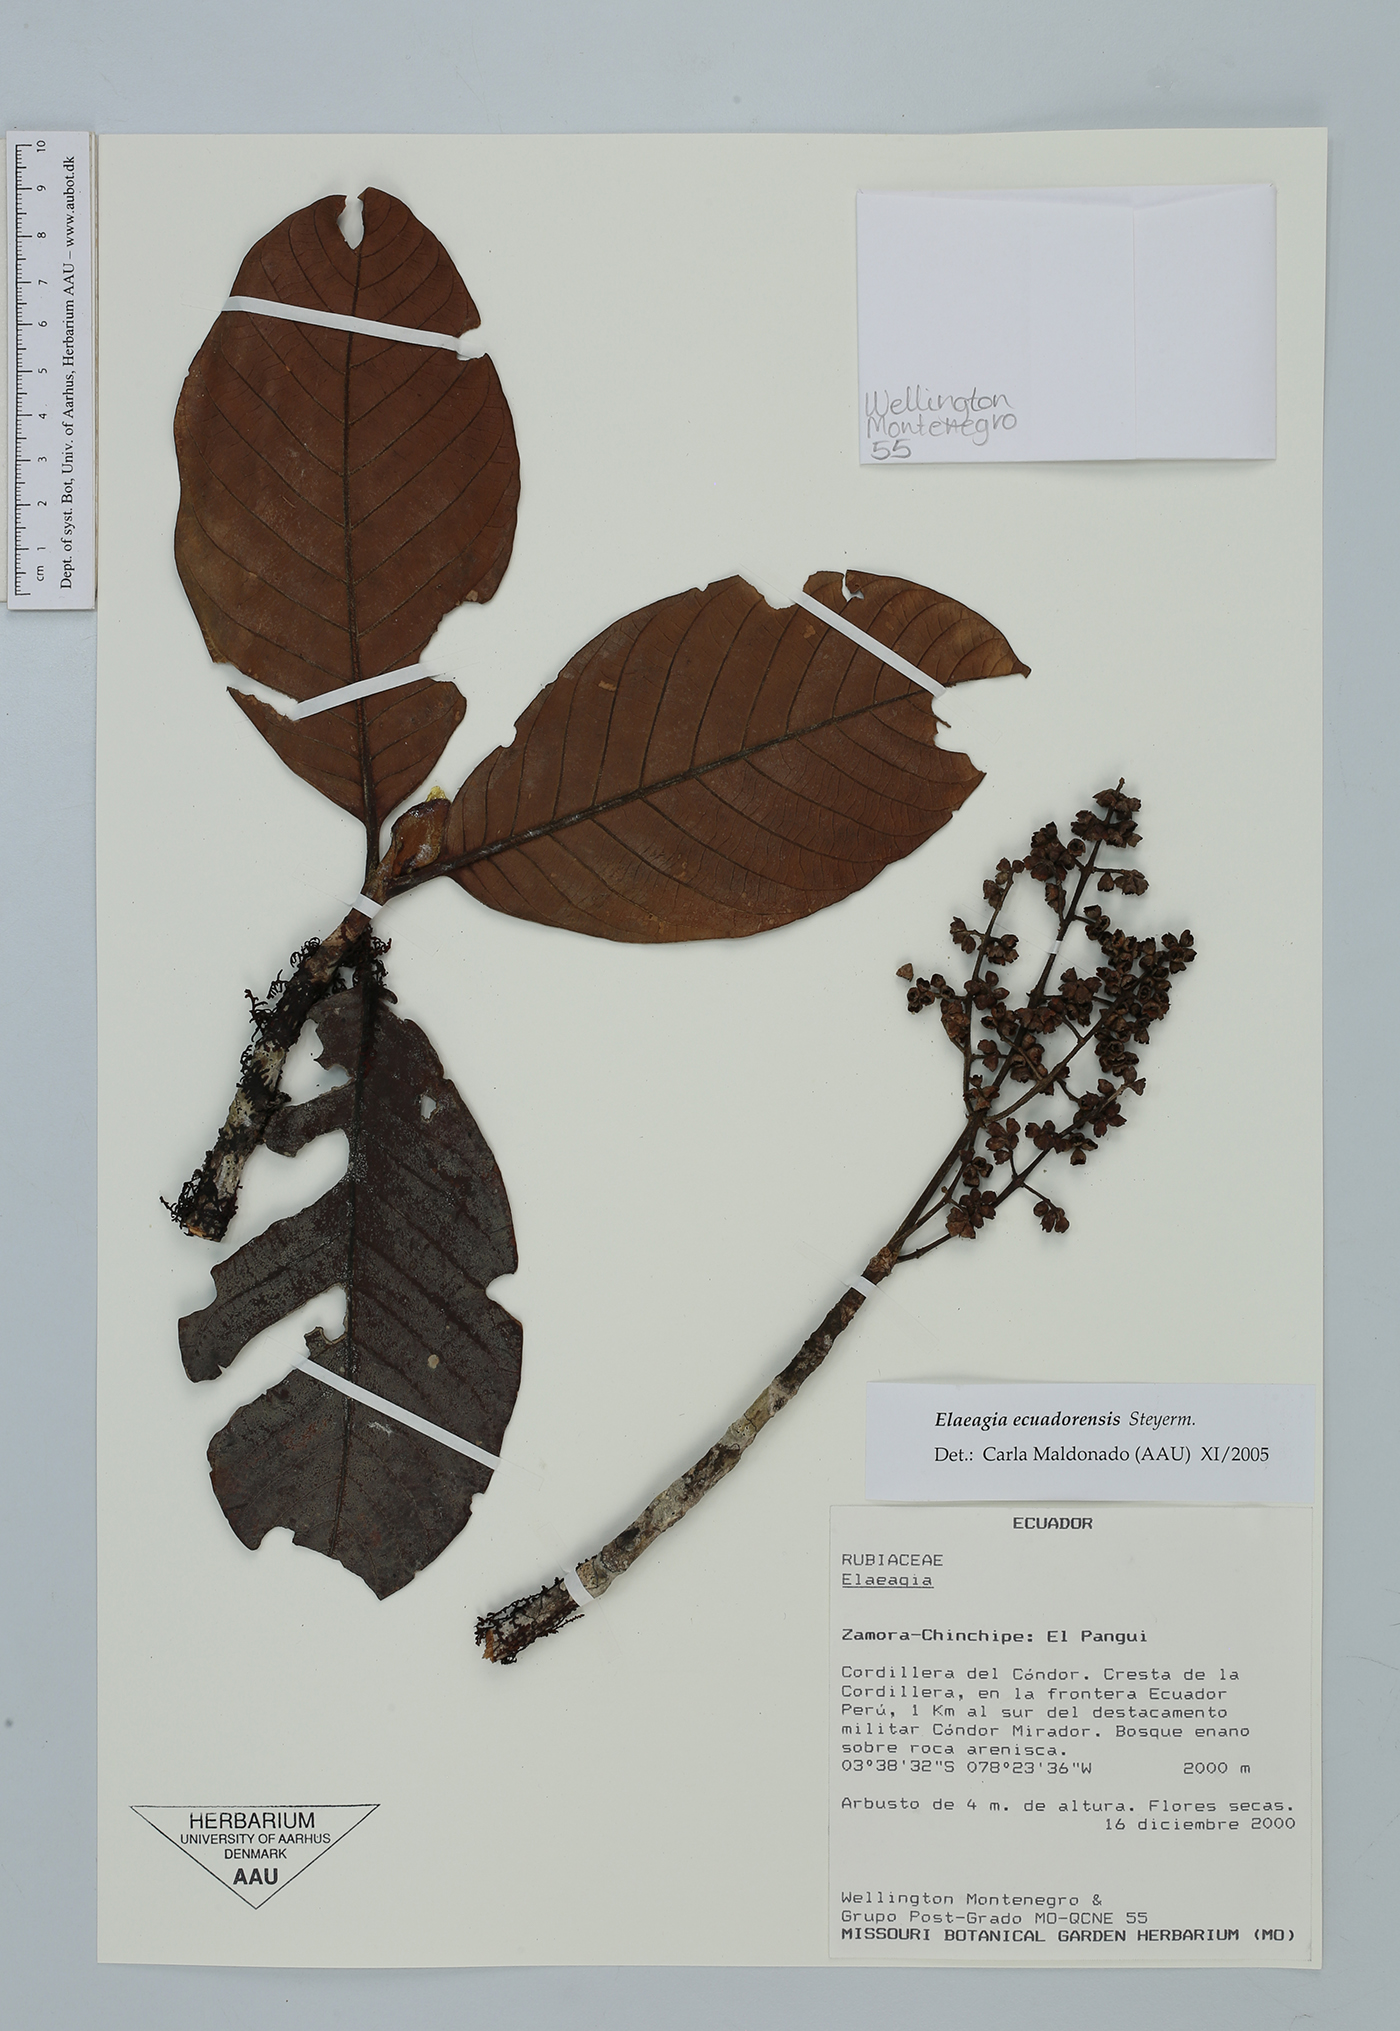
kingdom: Plantae
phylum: Tracheophyta
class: Magnoliopsida
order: Gentianales
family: Rubiaceae
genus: Elaeagia
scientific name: Elaeagia ecuadorensis
